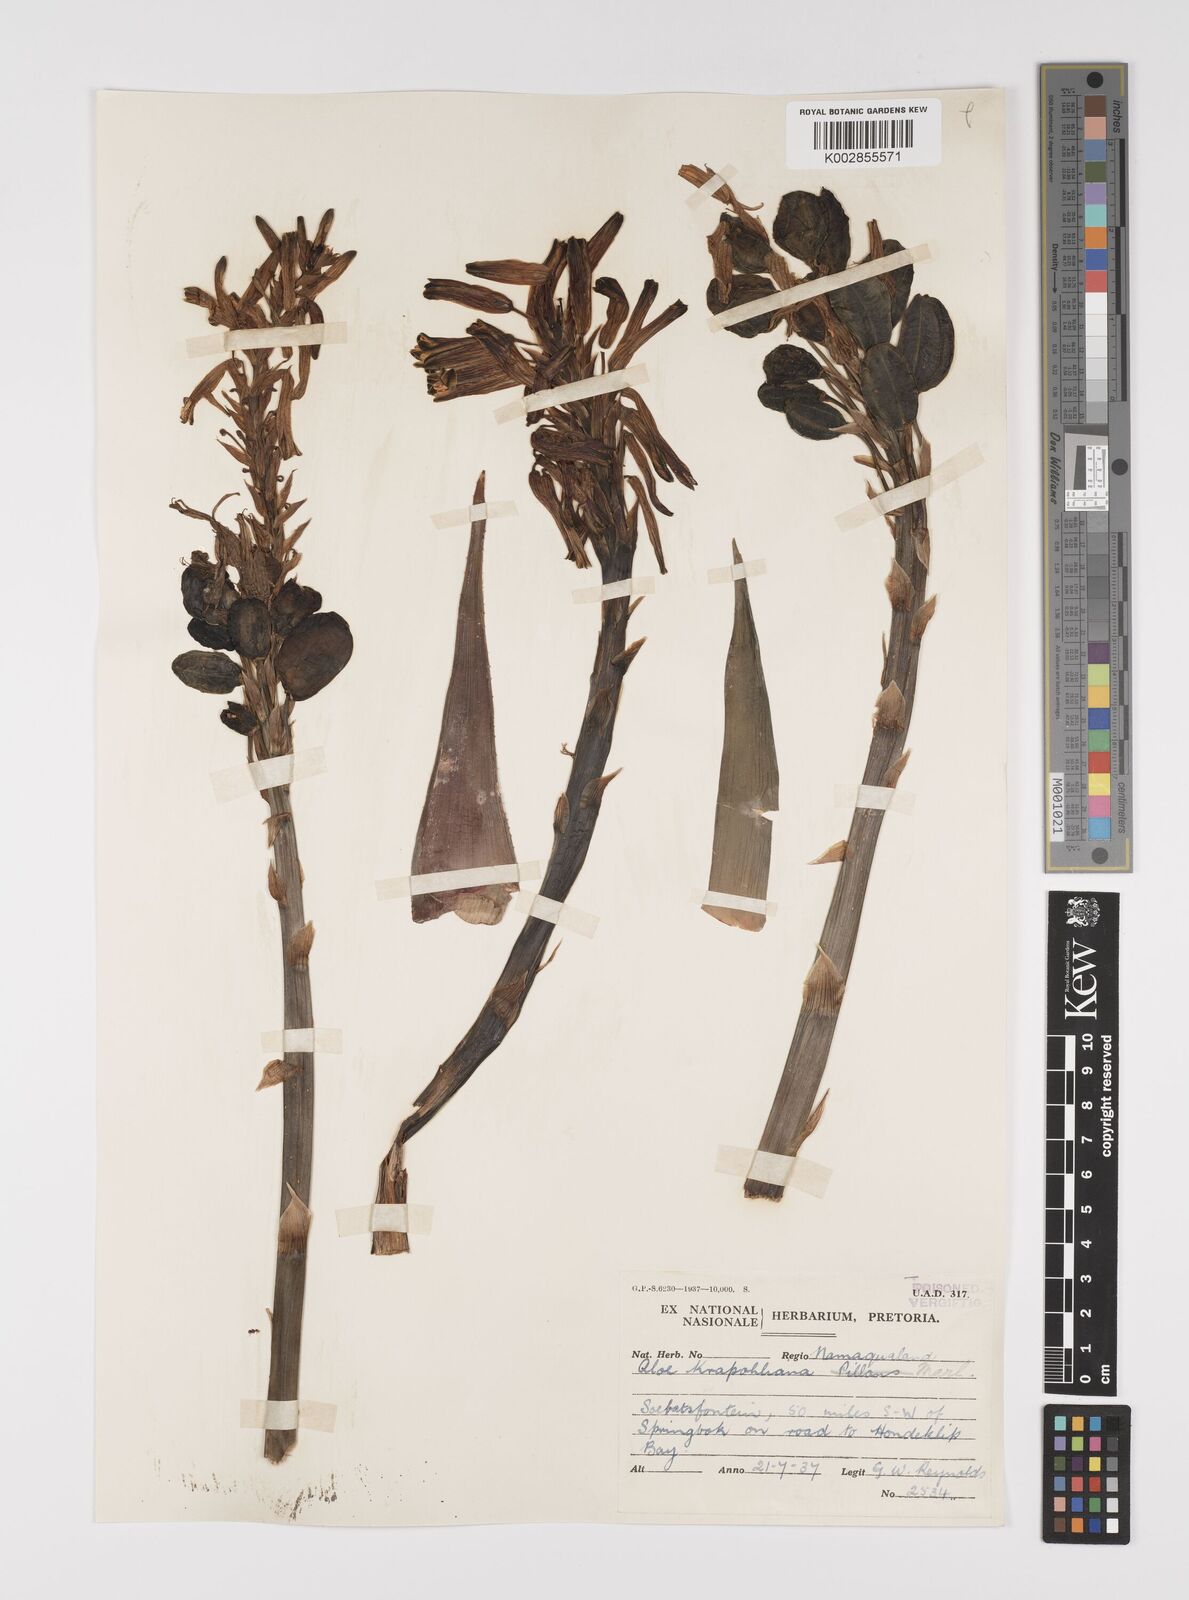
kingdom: Plantae
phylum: Tracheophyta
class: Liliopsida
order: Asparagales
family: Asphodelaceae
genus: Aloe
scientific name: Aloe humilis
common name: Dwarf hedgehog aloe
